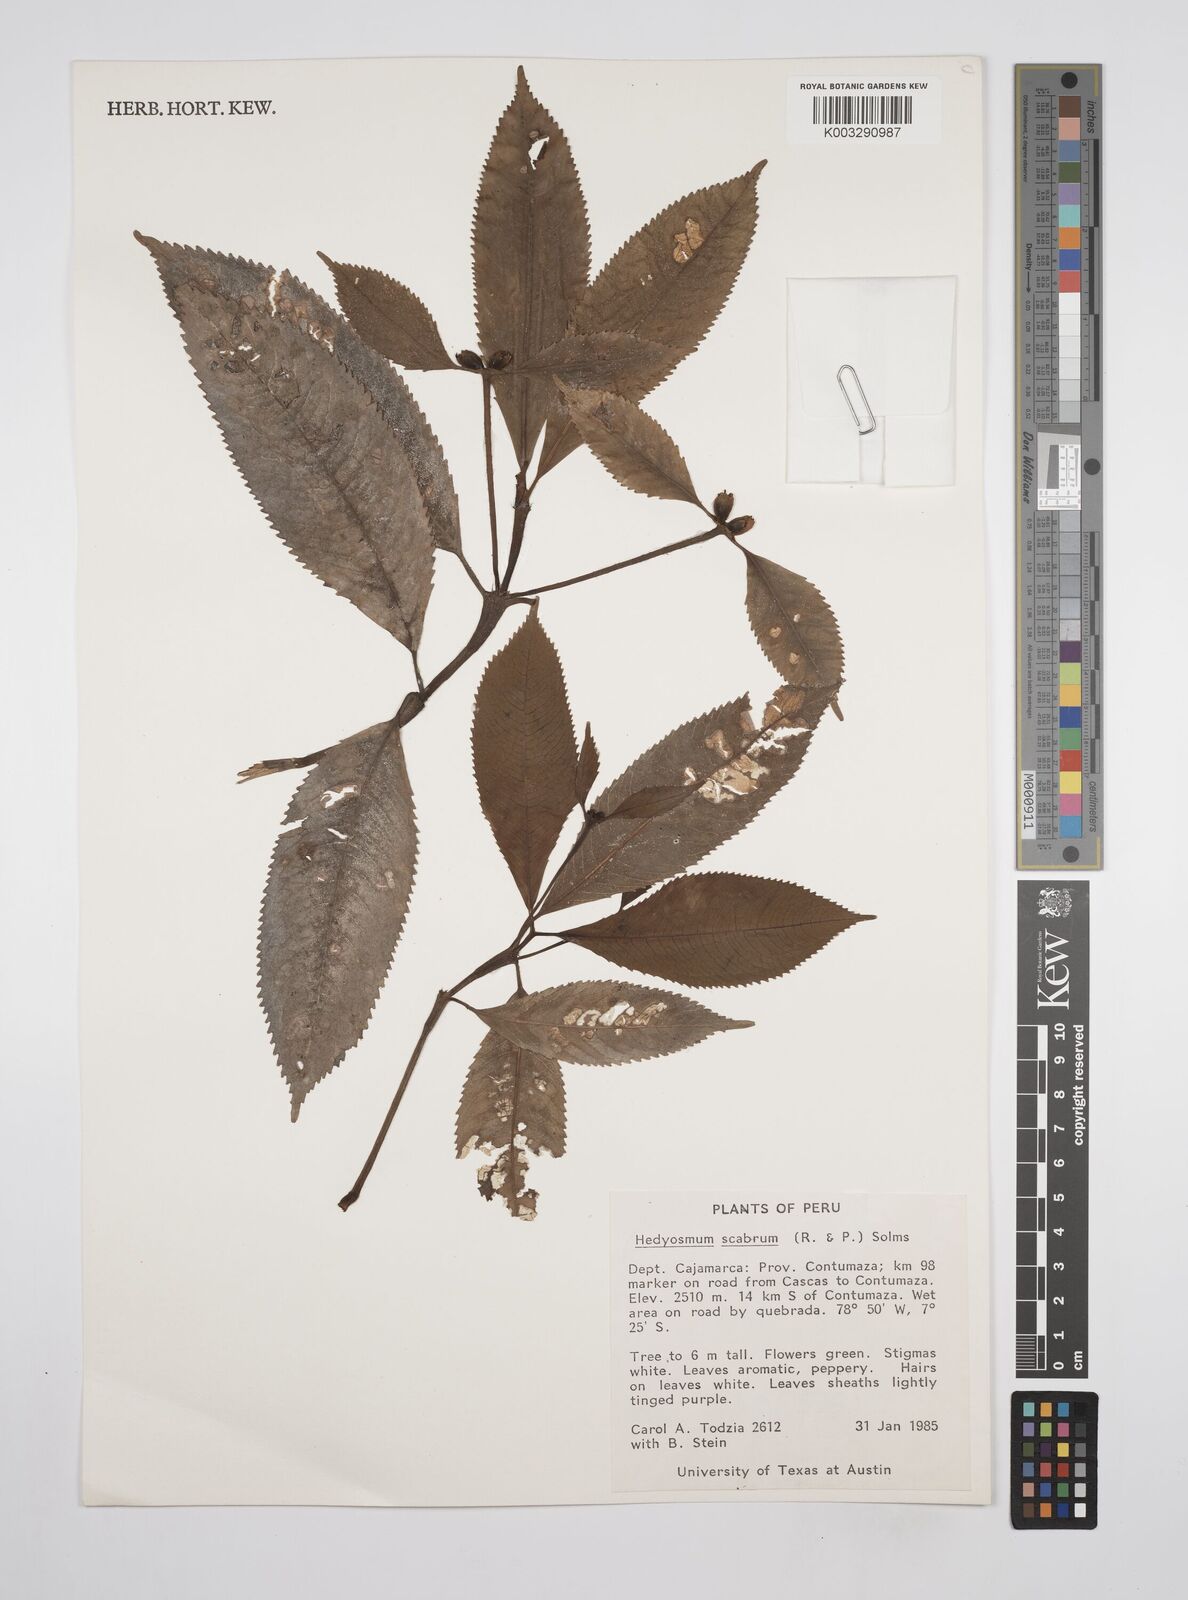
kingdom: Plantae
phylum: Tracheophyta
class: Magnoliopsida
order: Chloranthales
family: Chloranthaceae
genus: Hedyosmum
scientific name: Hedyosmum scabrum
